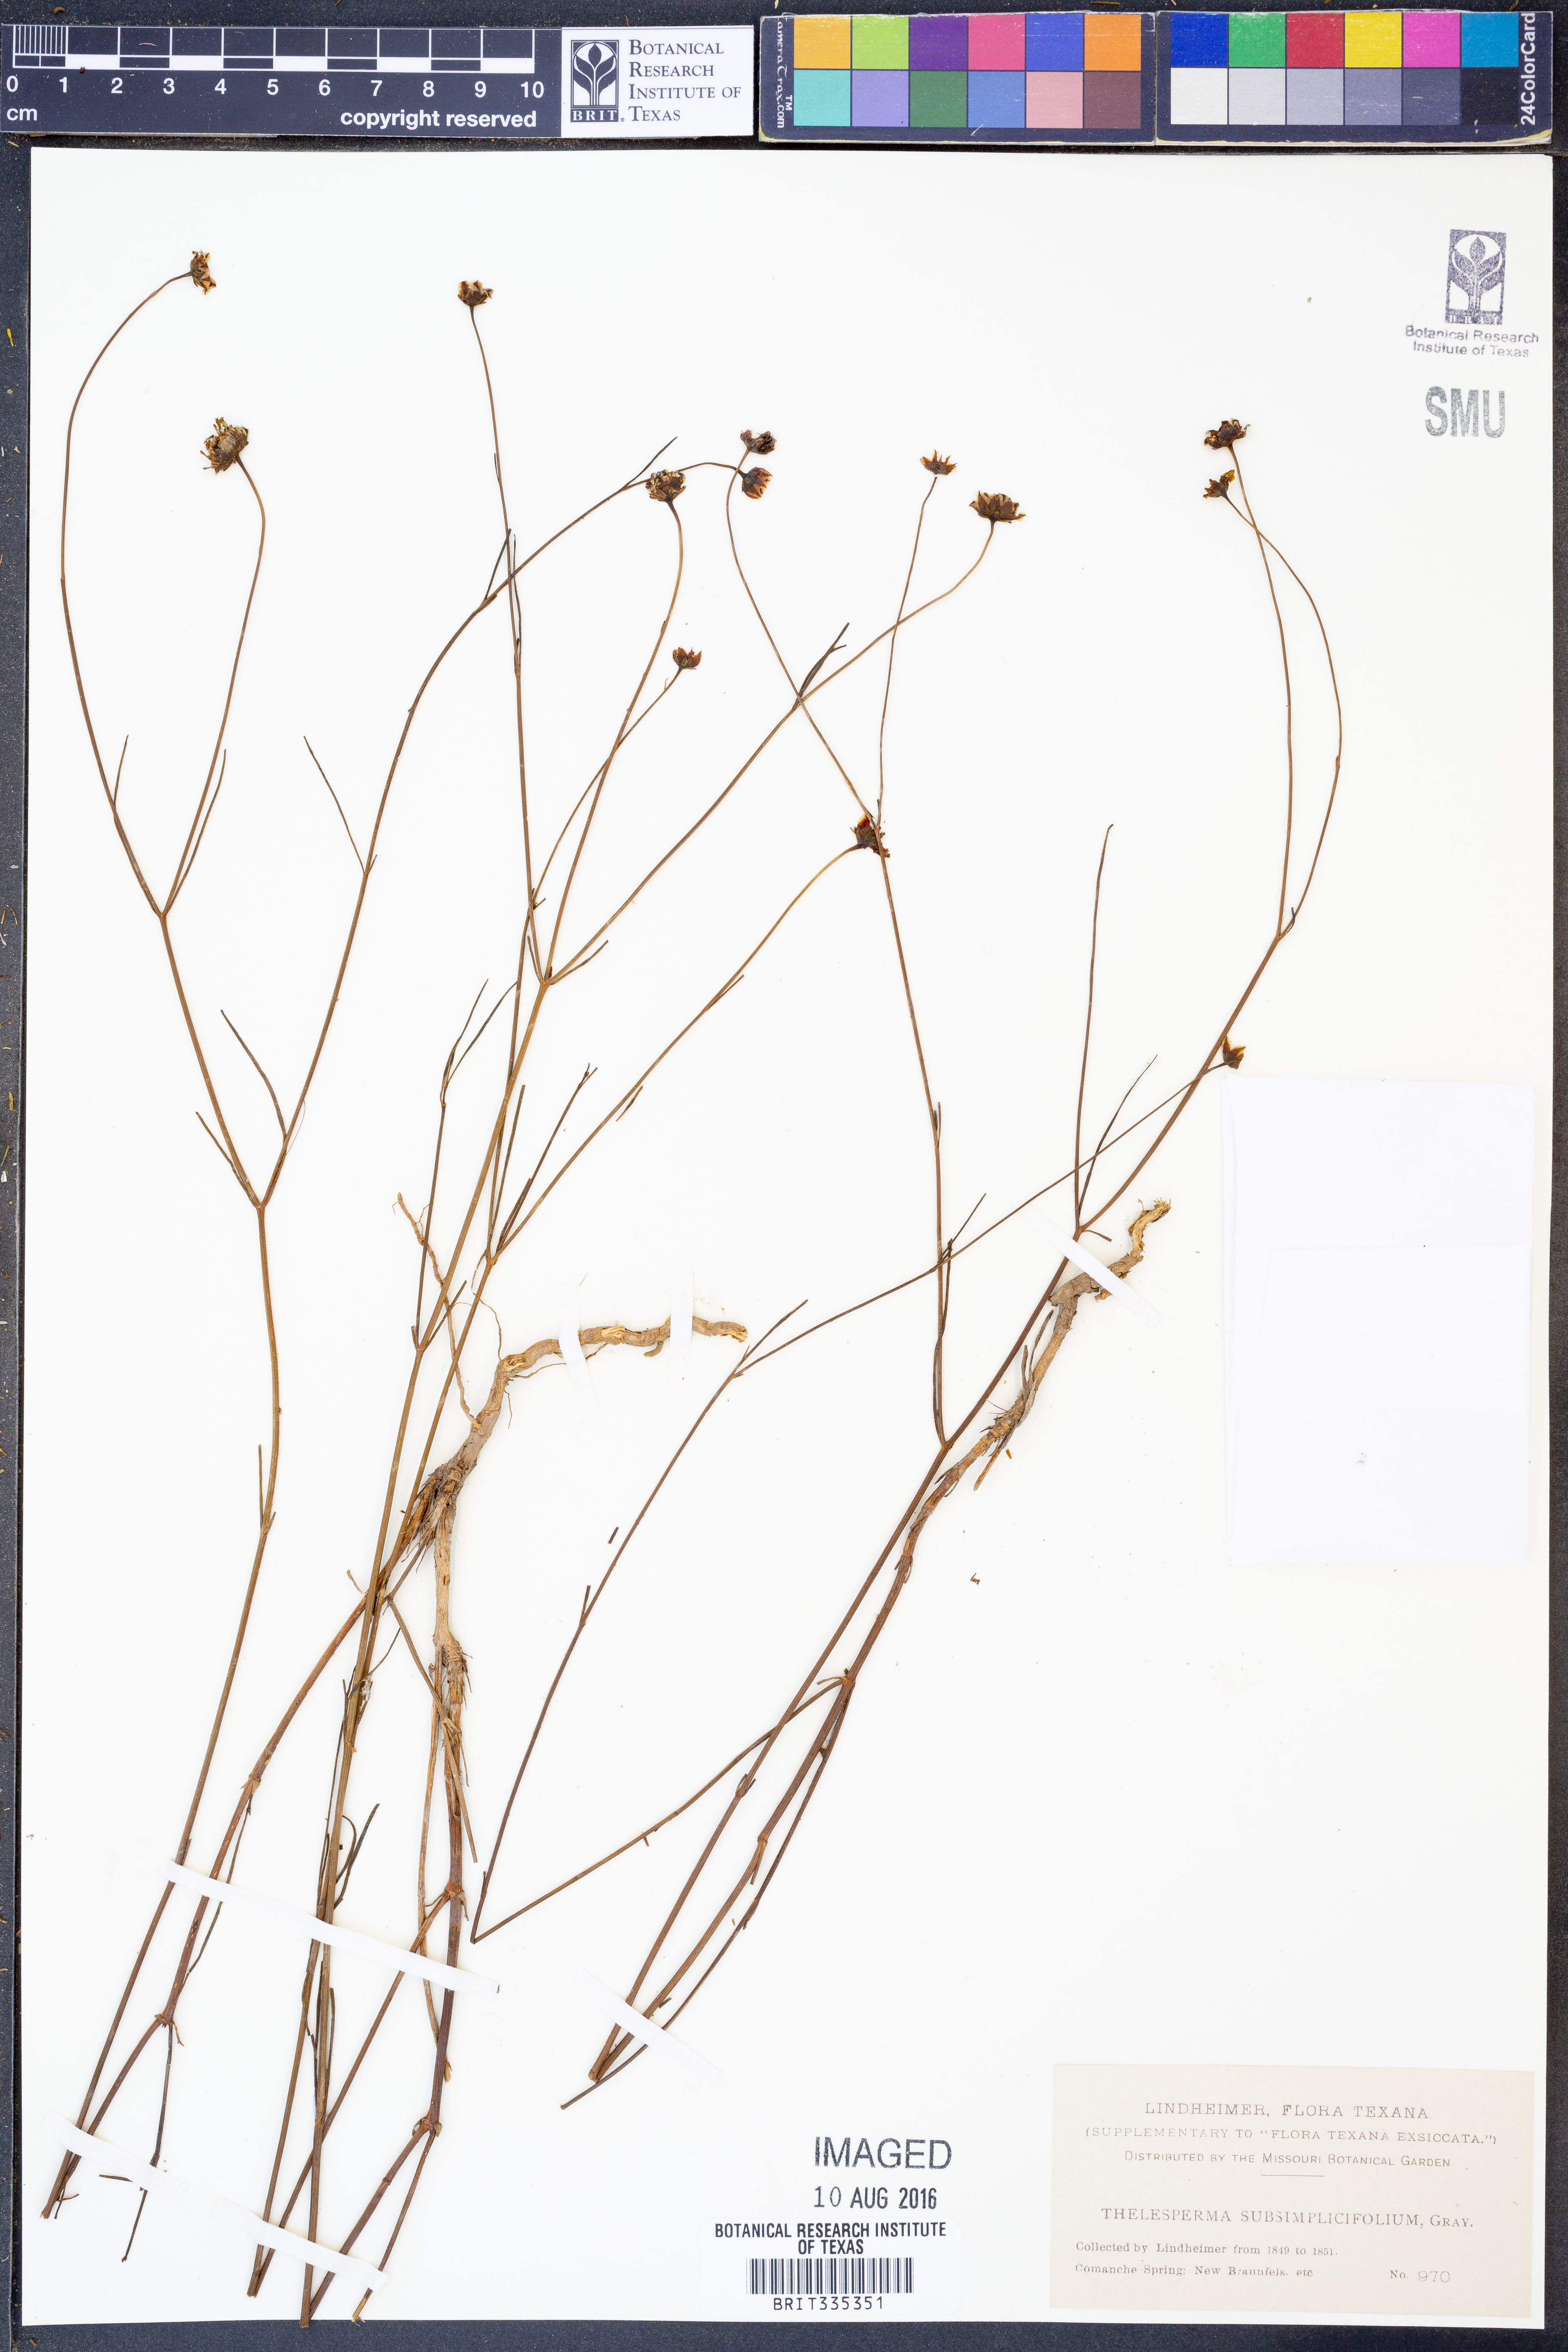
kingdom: Plantae
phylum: Tracheophyta
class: Magnoliopsida
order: Asterales
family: Asteraceae
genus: Thelesperma
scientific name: Thelesperma subsimplicifolium
